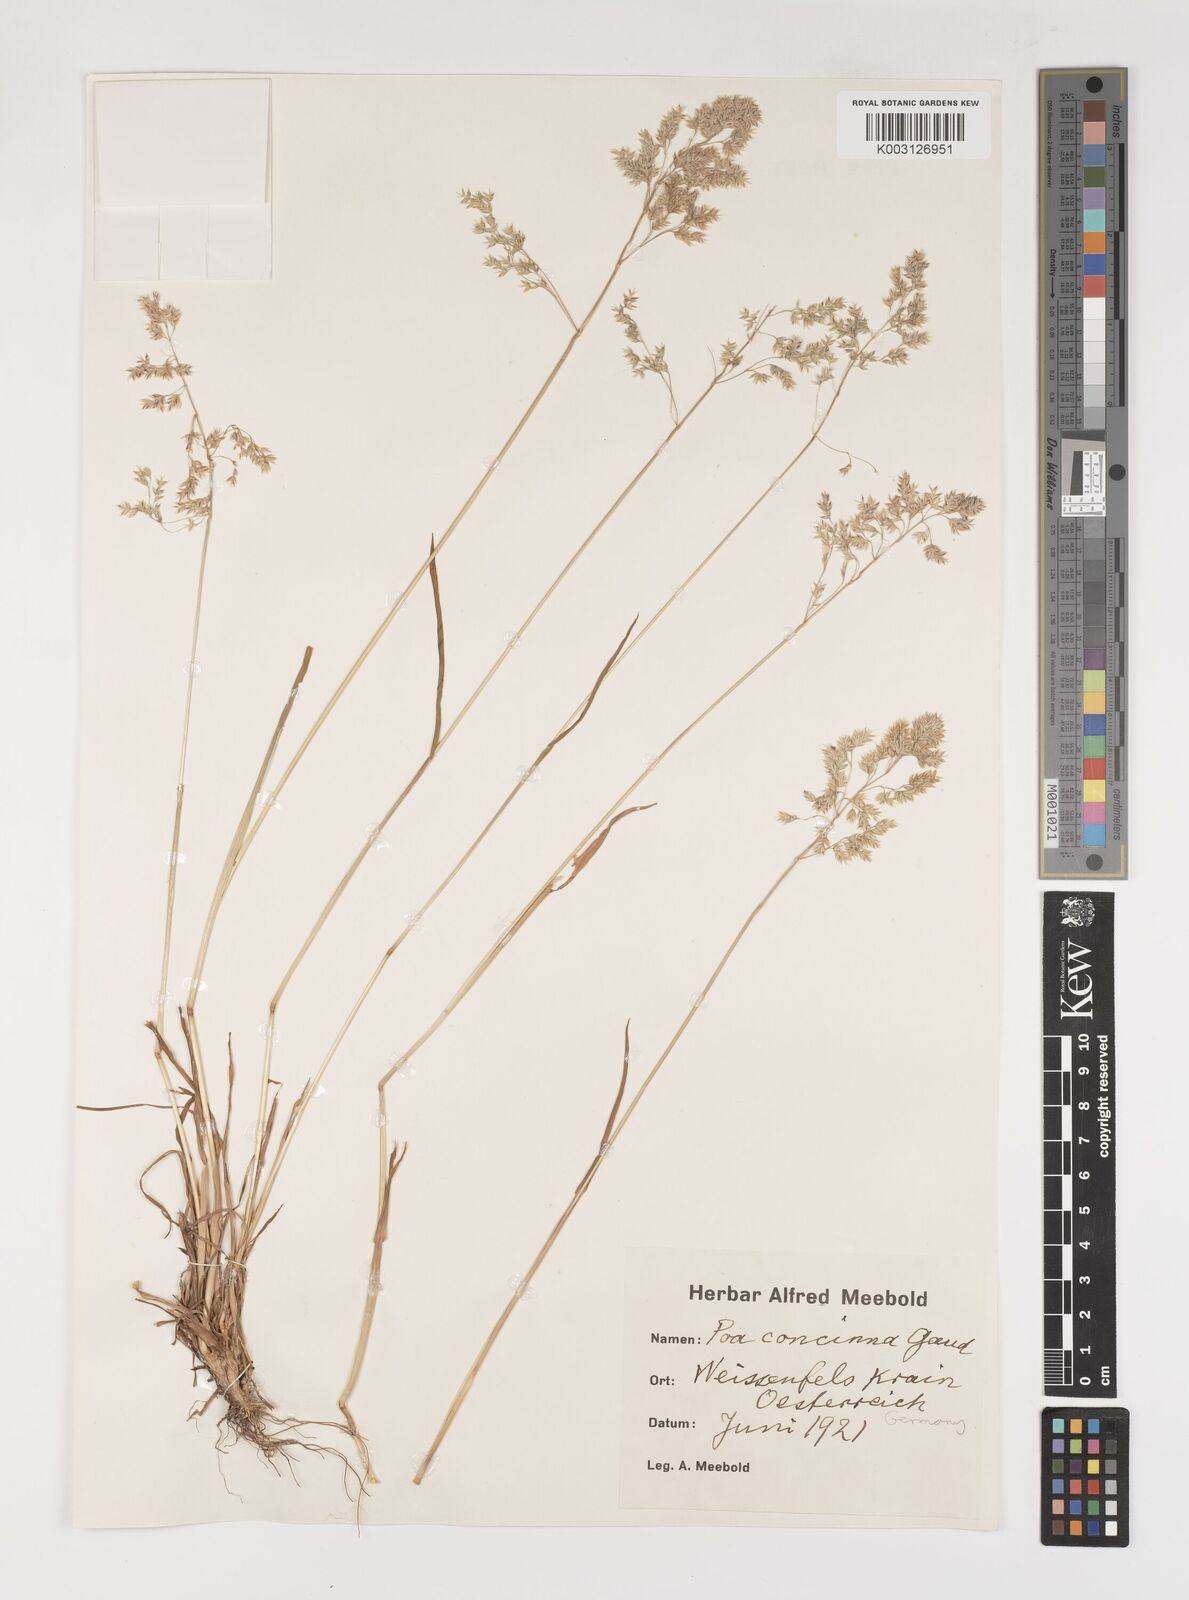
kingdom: Plantae
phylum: Tracheophyta
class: Liliopsida
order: Poales
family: Poaceae
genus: Poa
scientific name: Poa perconcinna
